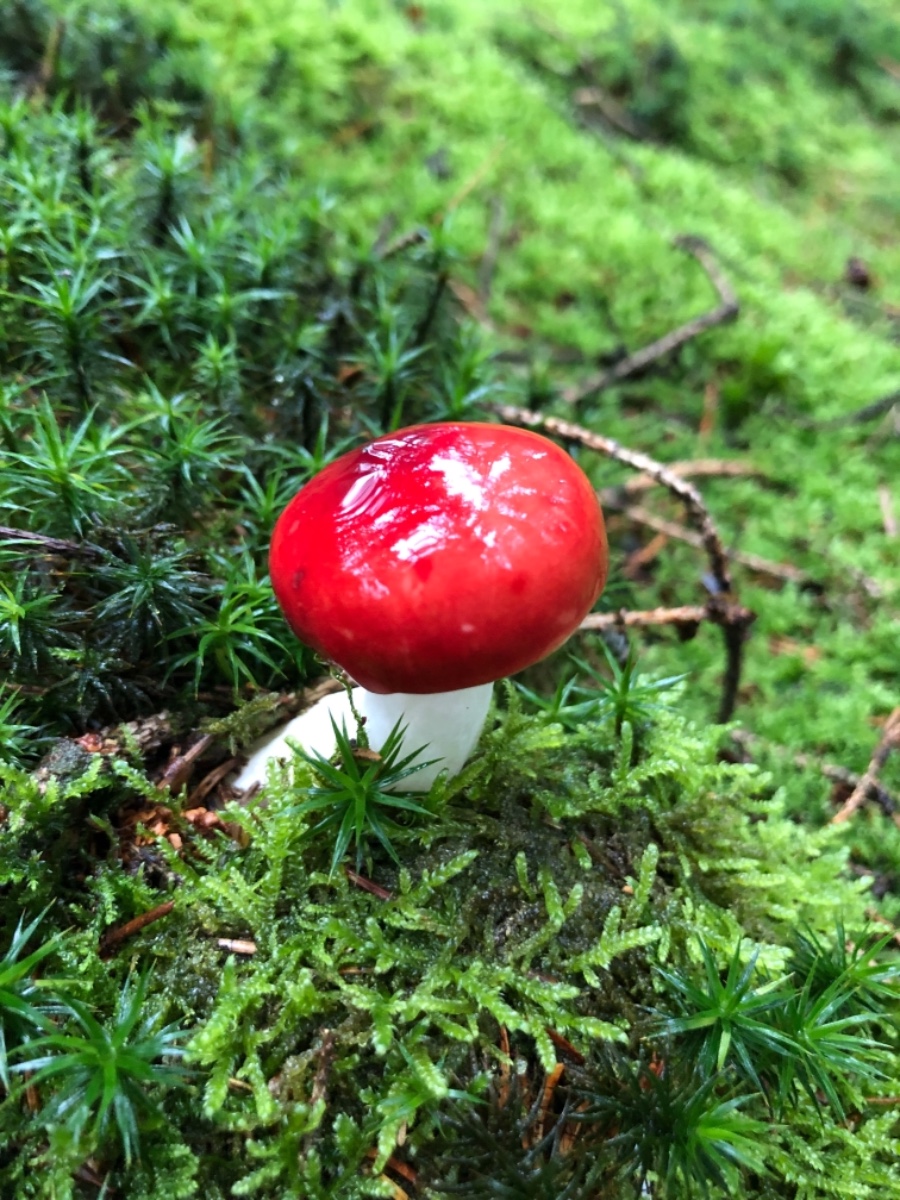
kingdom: Fungi
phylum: Basidiomycota
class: Agaricomycetes
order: Russulales
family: Russulaceae
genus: Russula
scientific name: Russula emetica
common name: stor gift-skørhat
